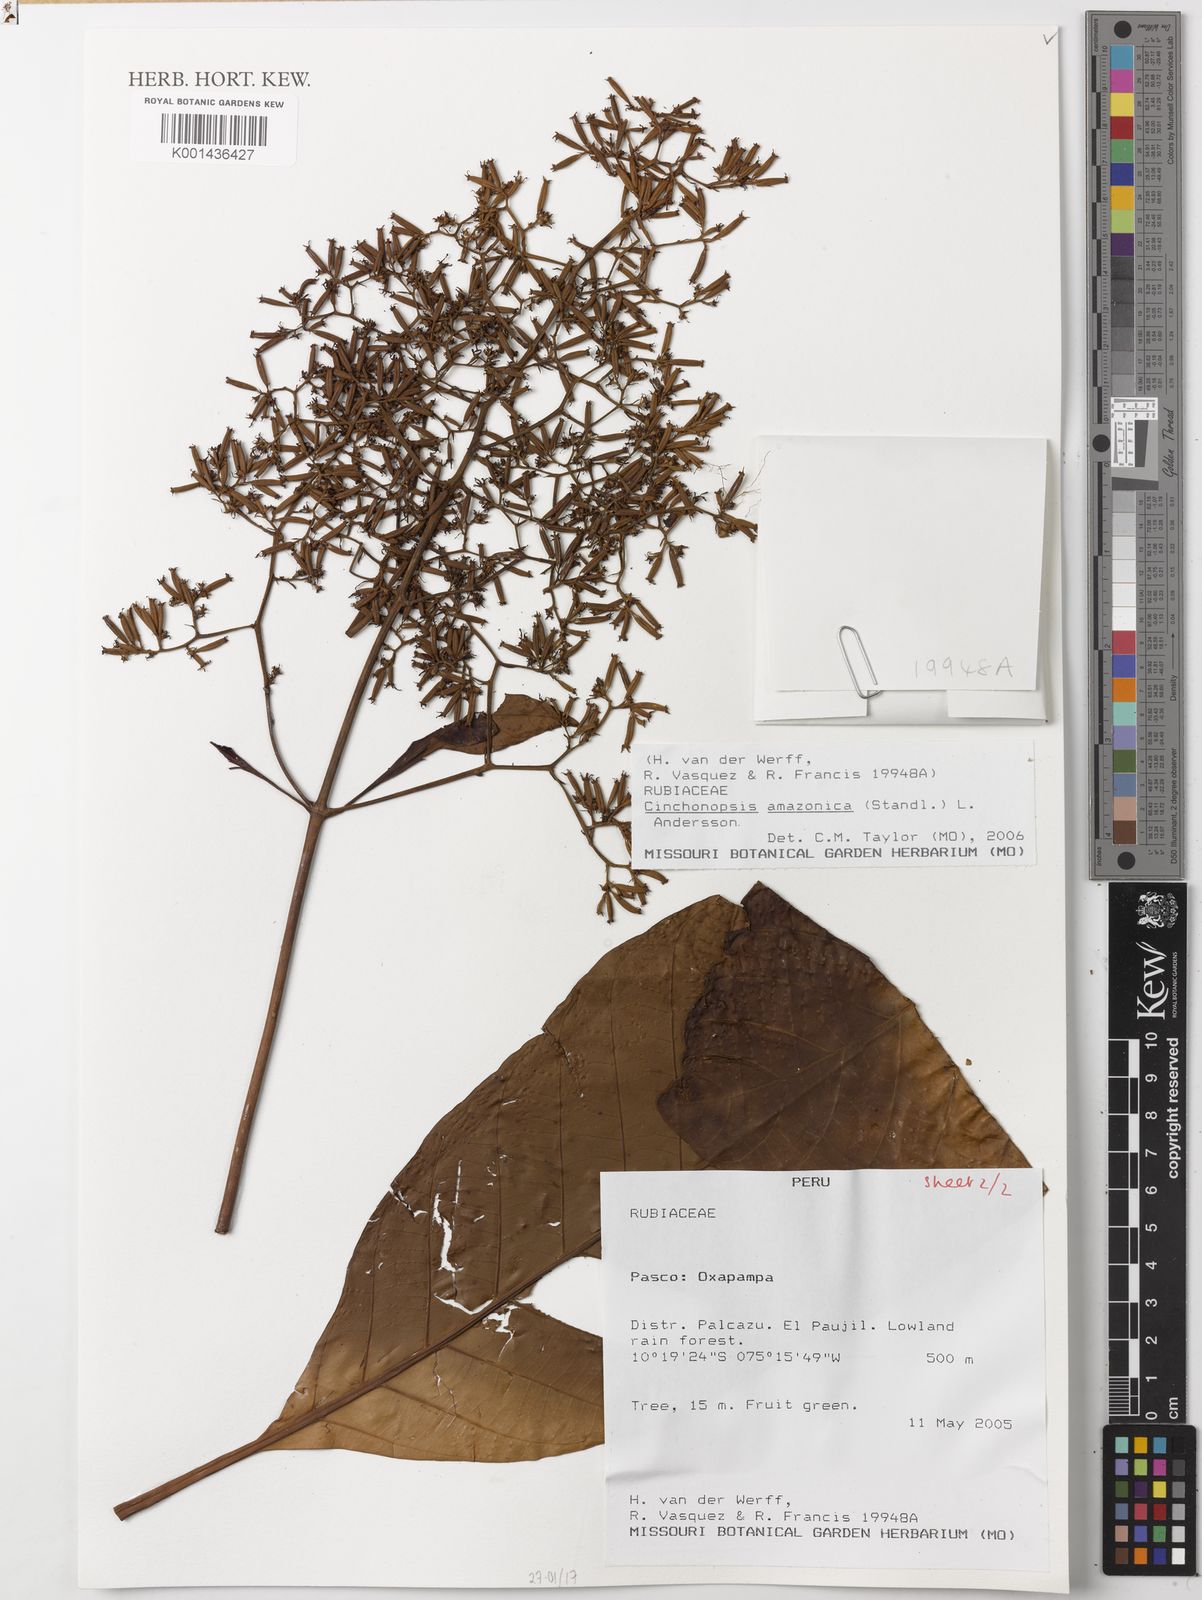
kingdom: Plantae
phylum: Tracheophyta
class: Magnoliopsida
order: Gentianales
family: Rubiaceae
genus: Cinchonopsis
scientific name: Cinchonopsis amazonica
